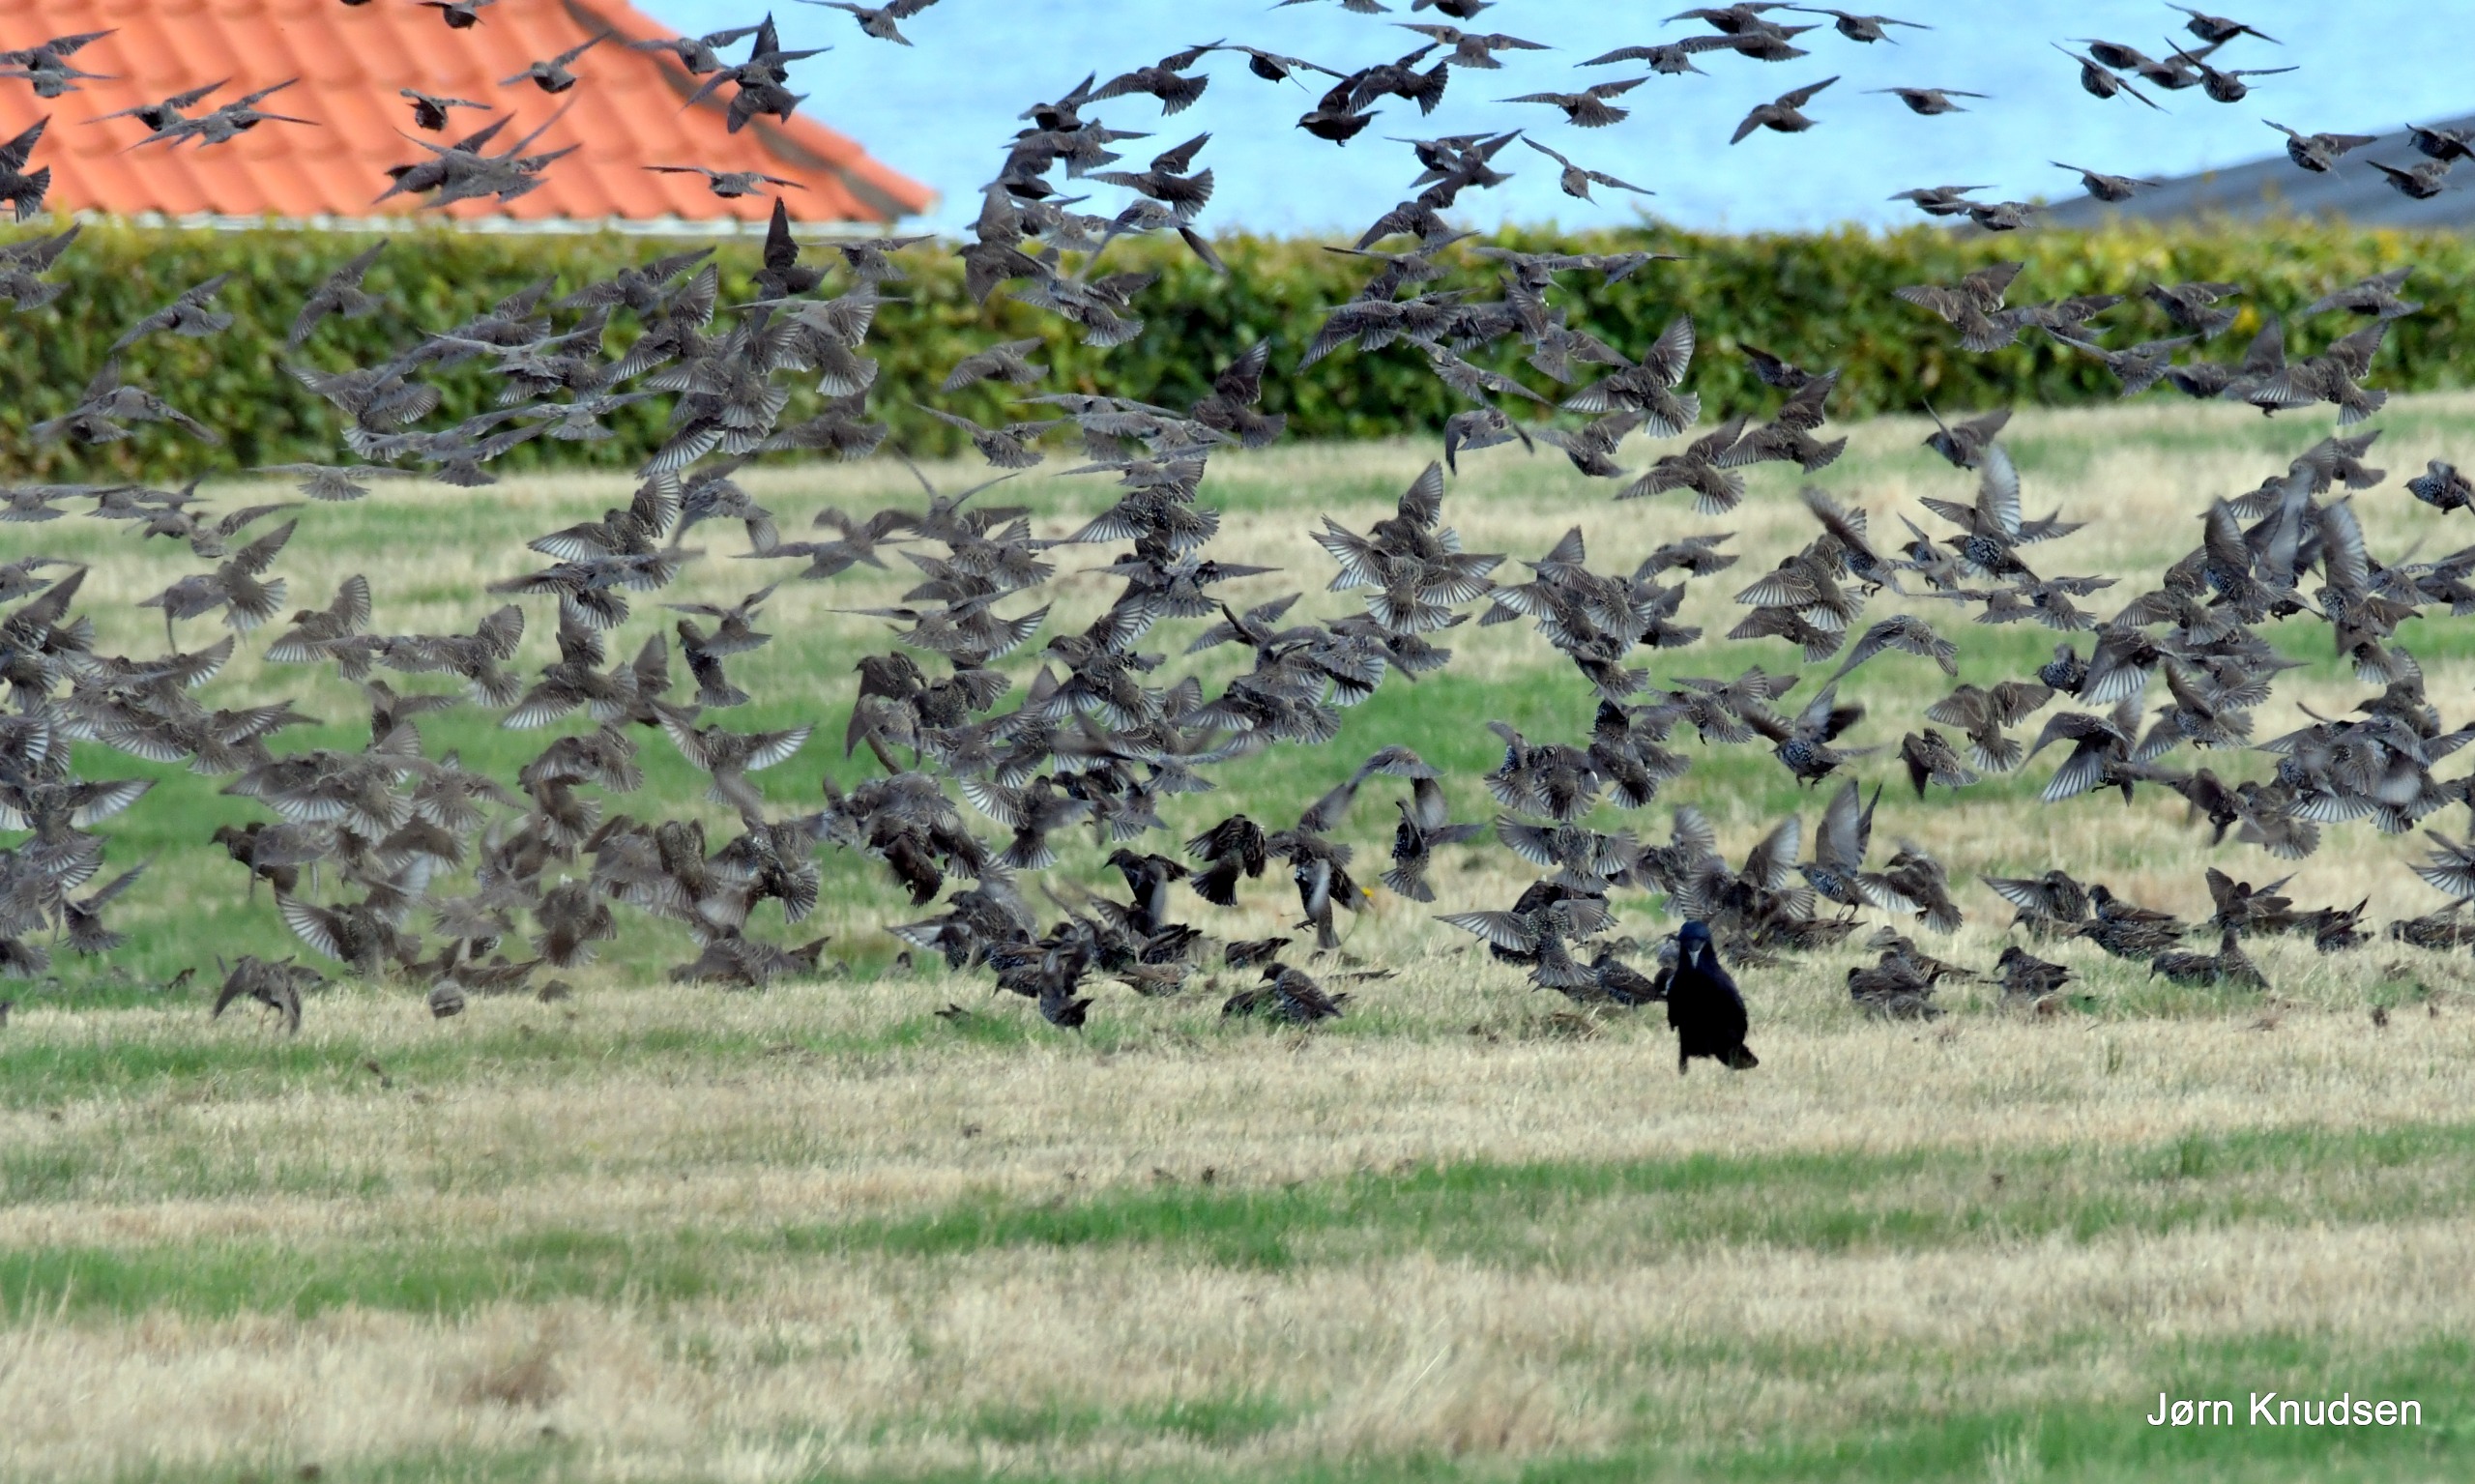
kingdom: Animalia
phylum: Chordata
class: Aves
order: Passeriformes
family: Sturnidae
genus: Sturnus
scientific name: Sturnus vulgaris
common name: Stær
